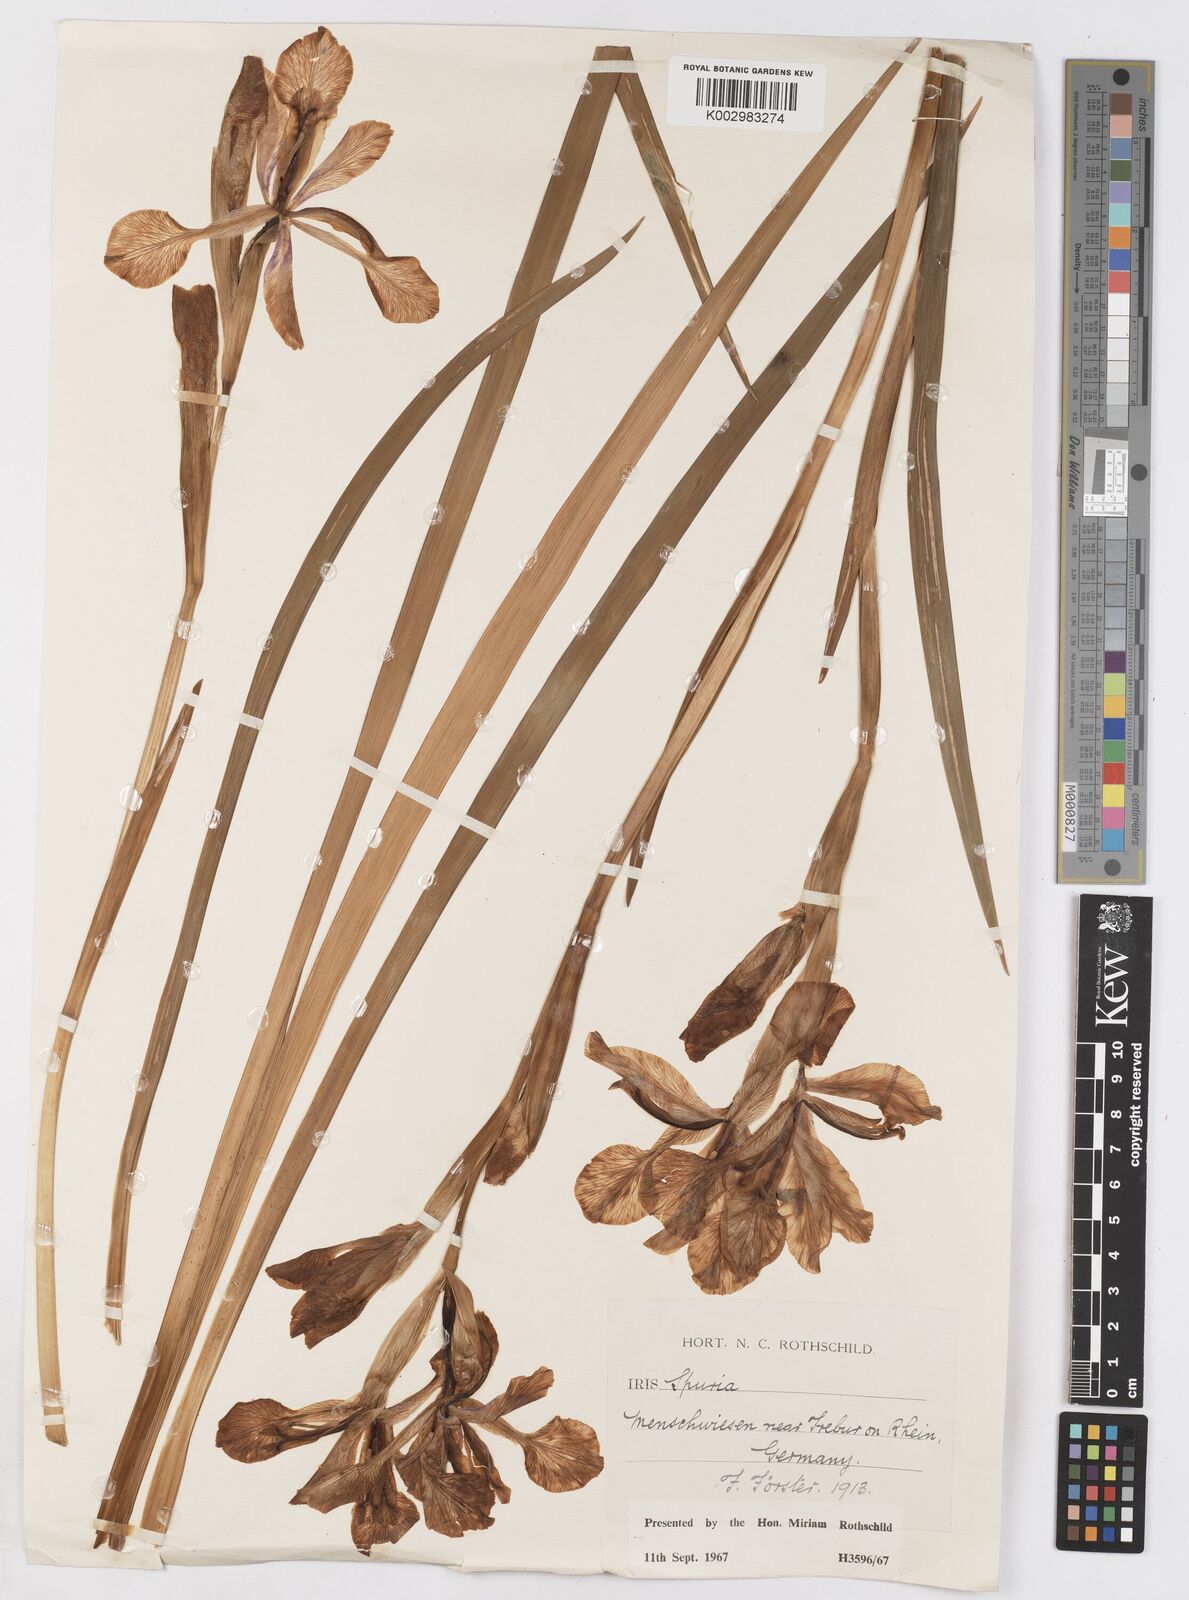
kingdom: Plantae
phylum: Tracheophyta
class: Liliopsida
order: Asparagales
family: Iridaceae
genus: Iris
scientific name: Iris spuria
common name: Blue iris
